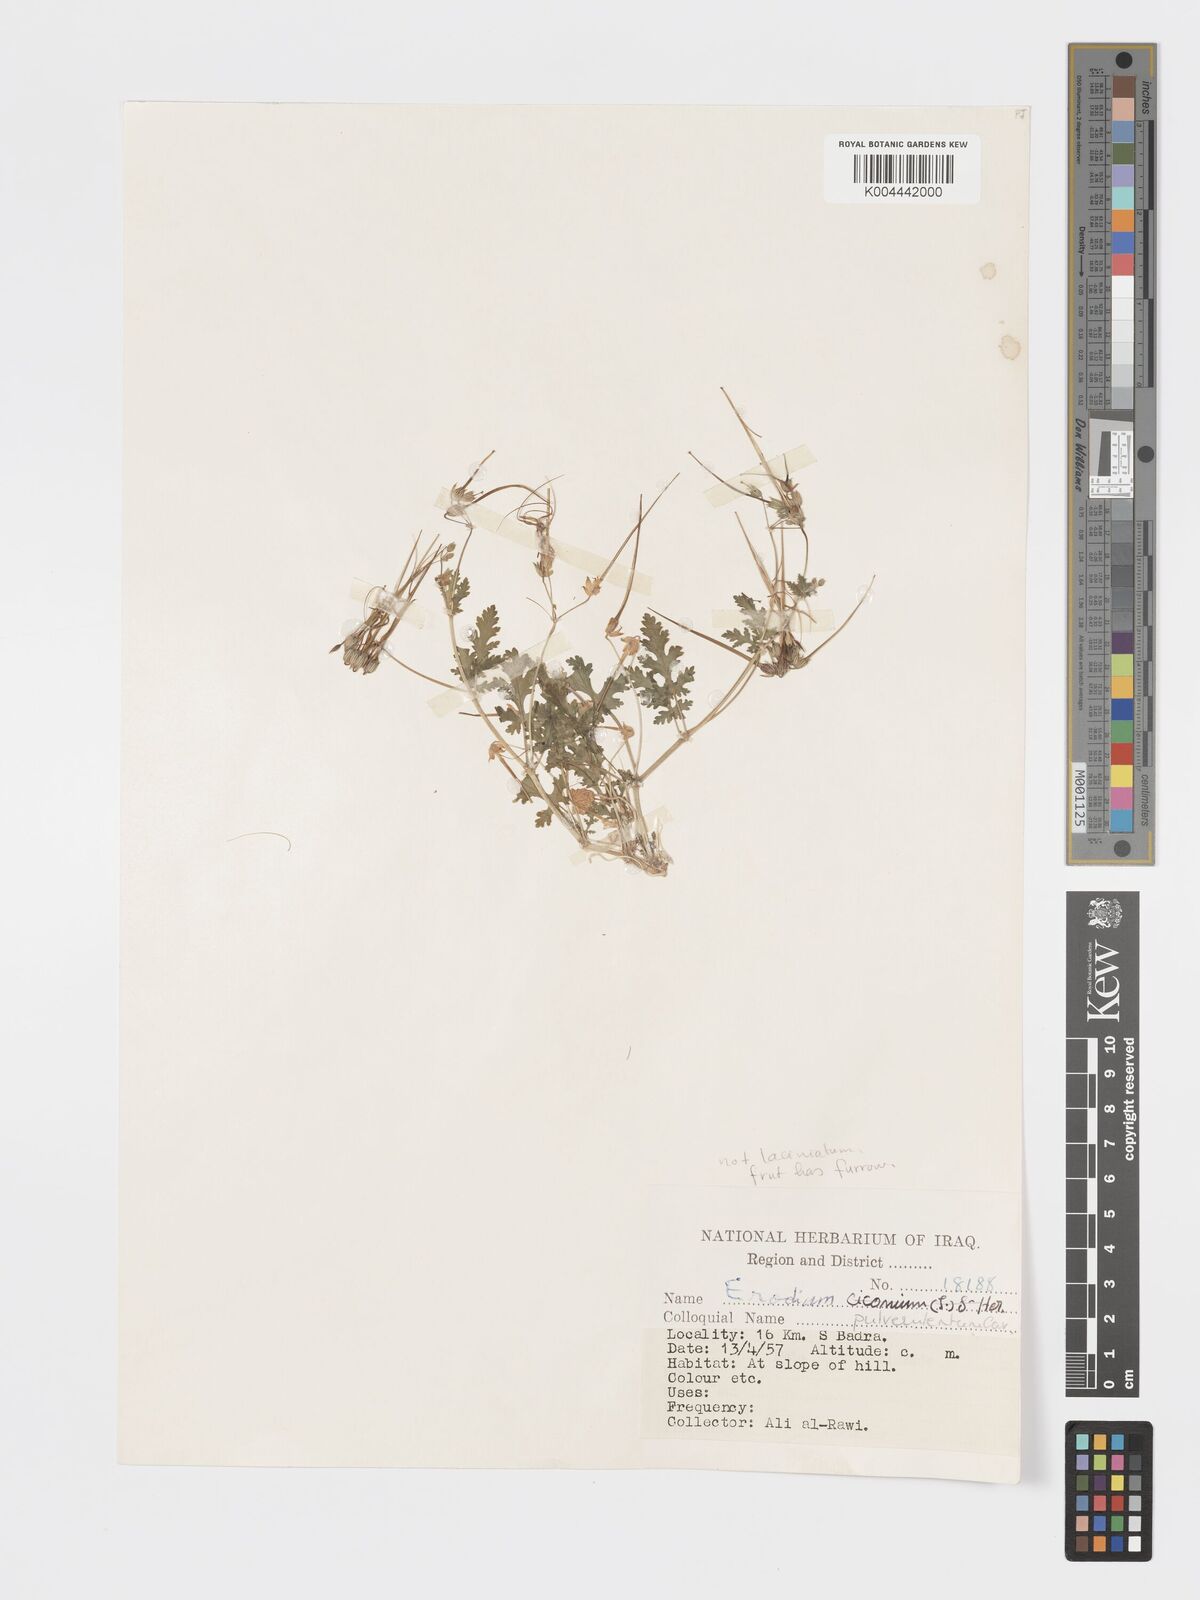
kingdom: Plantae
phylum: Tracheophyta
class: Magnoliopsida
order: Geraniales
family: Geraniaceae
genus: Erodium
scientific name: Erodium laciniatum
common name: Cutleaf stork's bill
